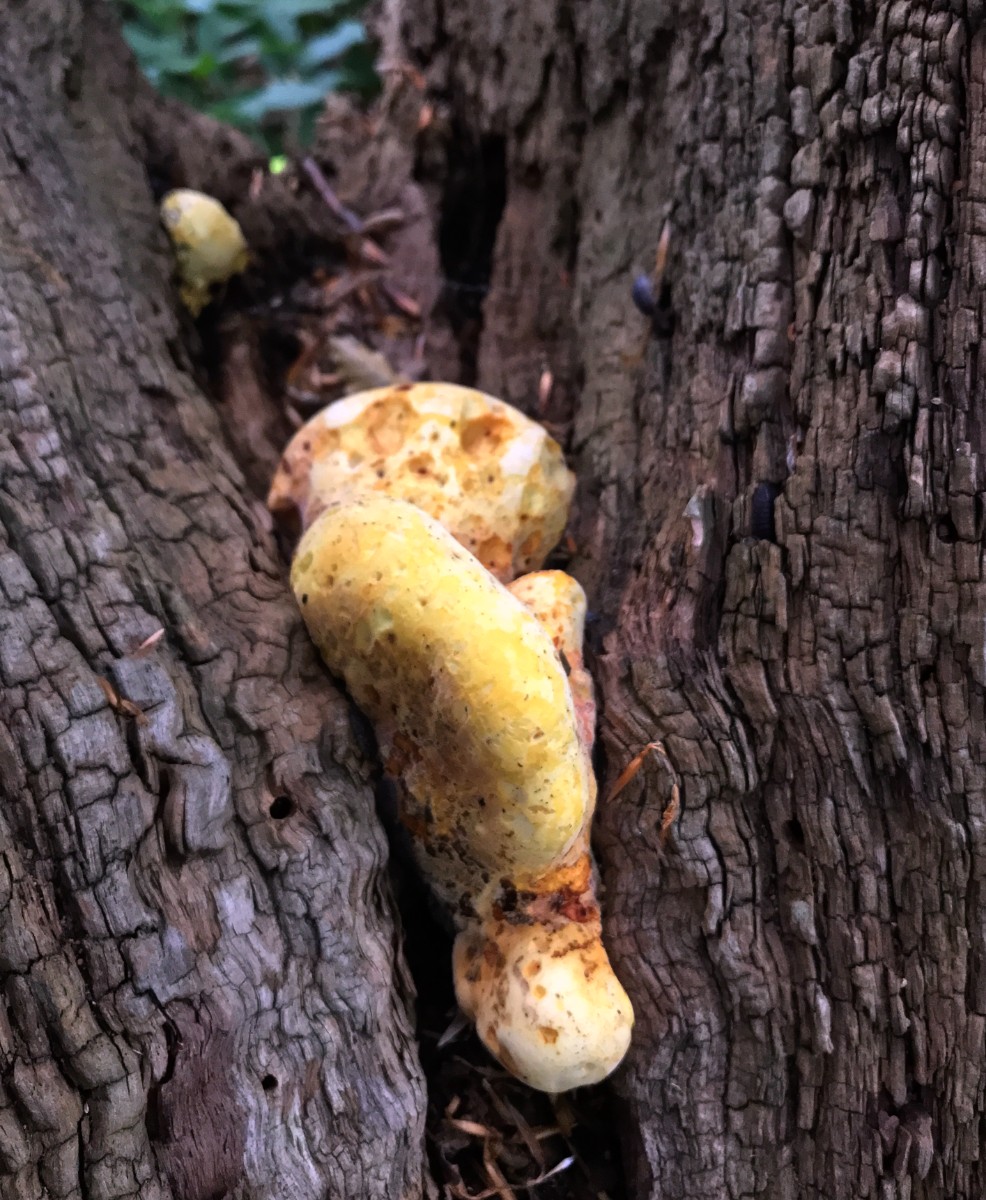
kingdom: Fungi
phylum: Basidiomycota
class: Agaricomycetes
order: Polyporales
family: Fomitopsidaceae
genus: Buglossoporus
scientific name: Buglossoporus quercinus
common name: egetunge
